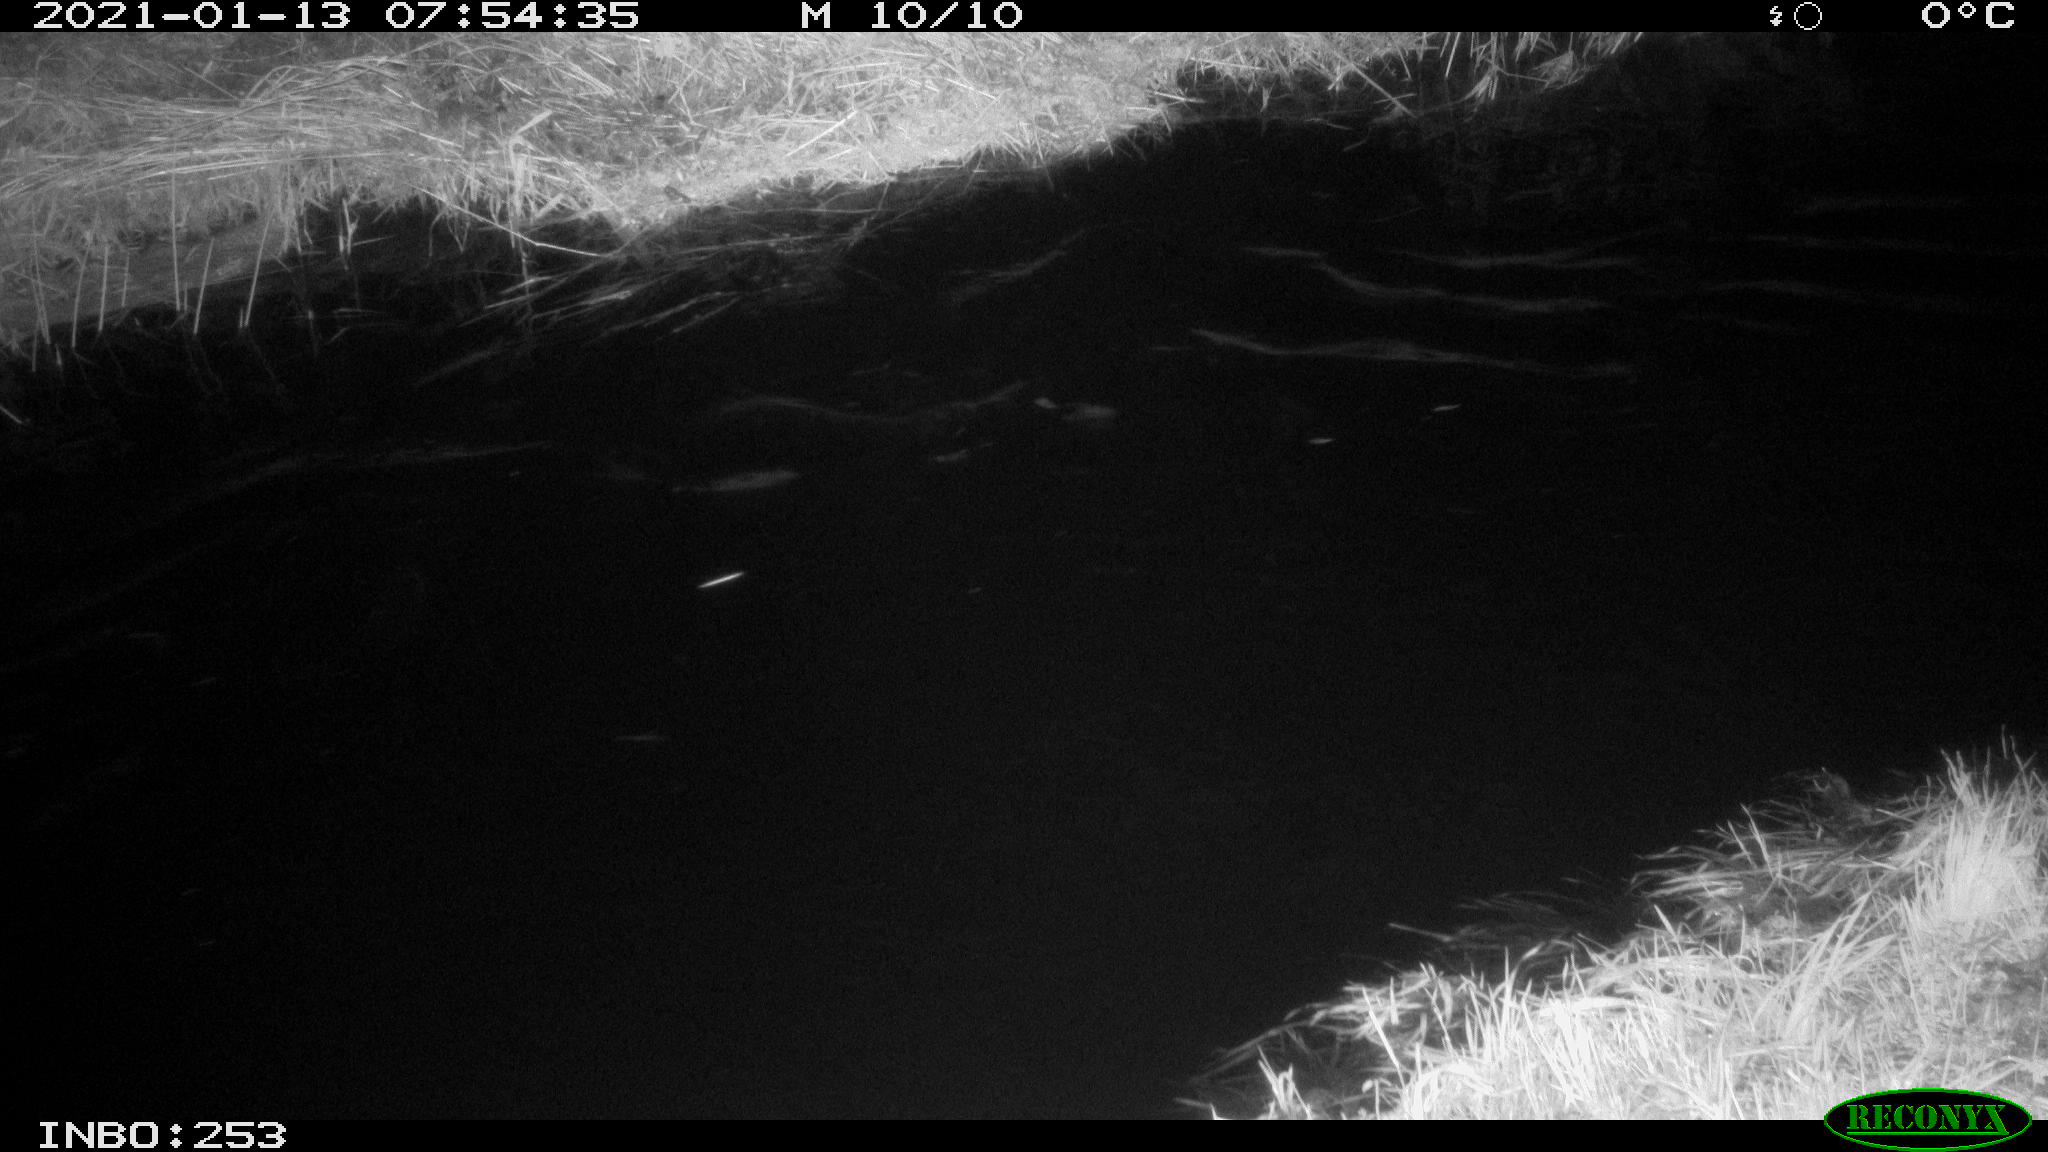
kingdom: Animalia
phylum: Chordata
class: Aves
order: Anseriformes
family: Anatidae
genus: Anas
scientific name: Anas platyrhynchos
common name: Mallard
